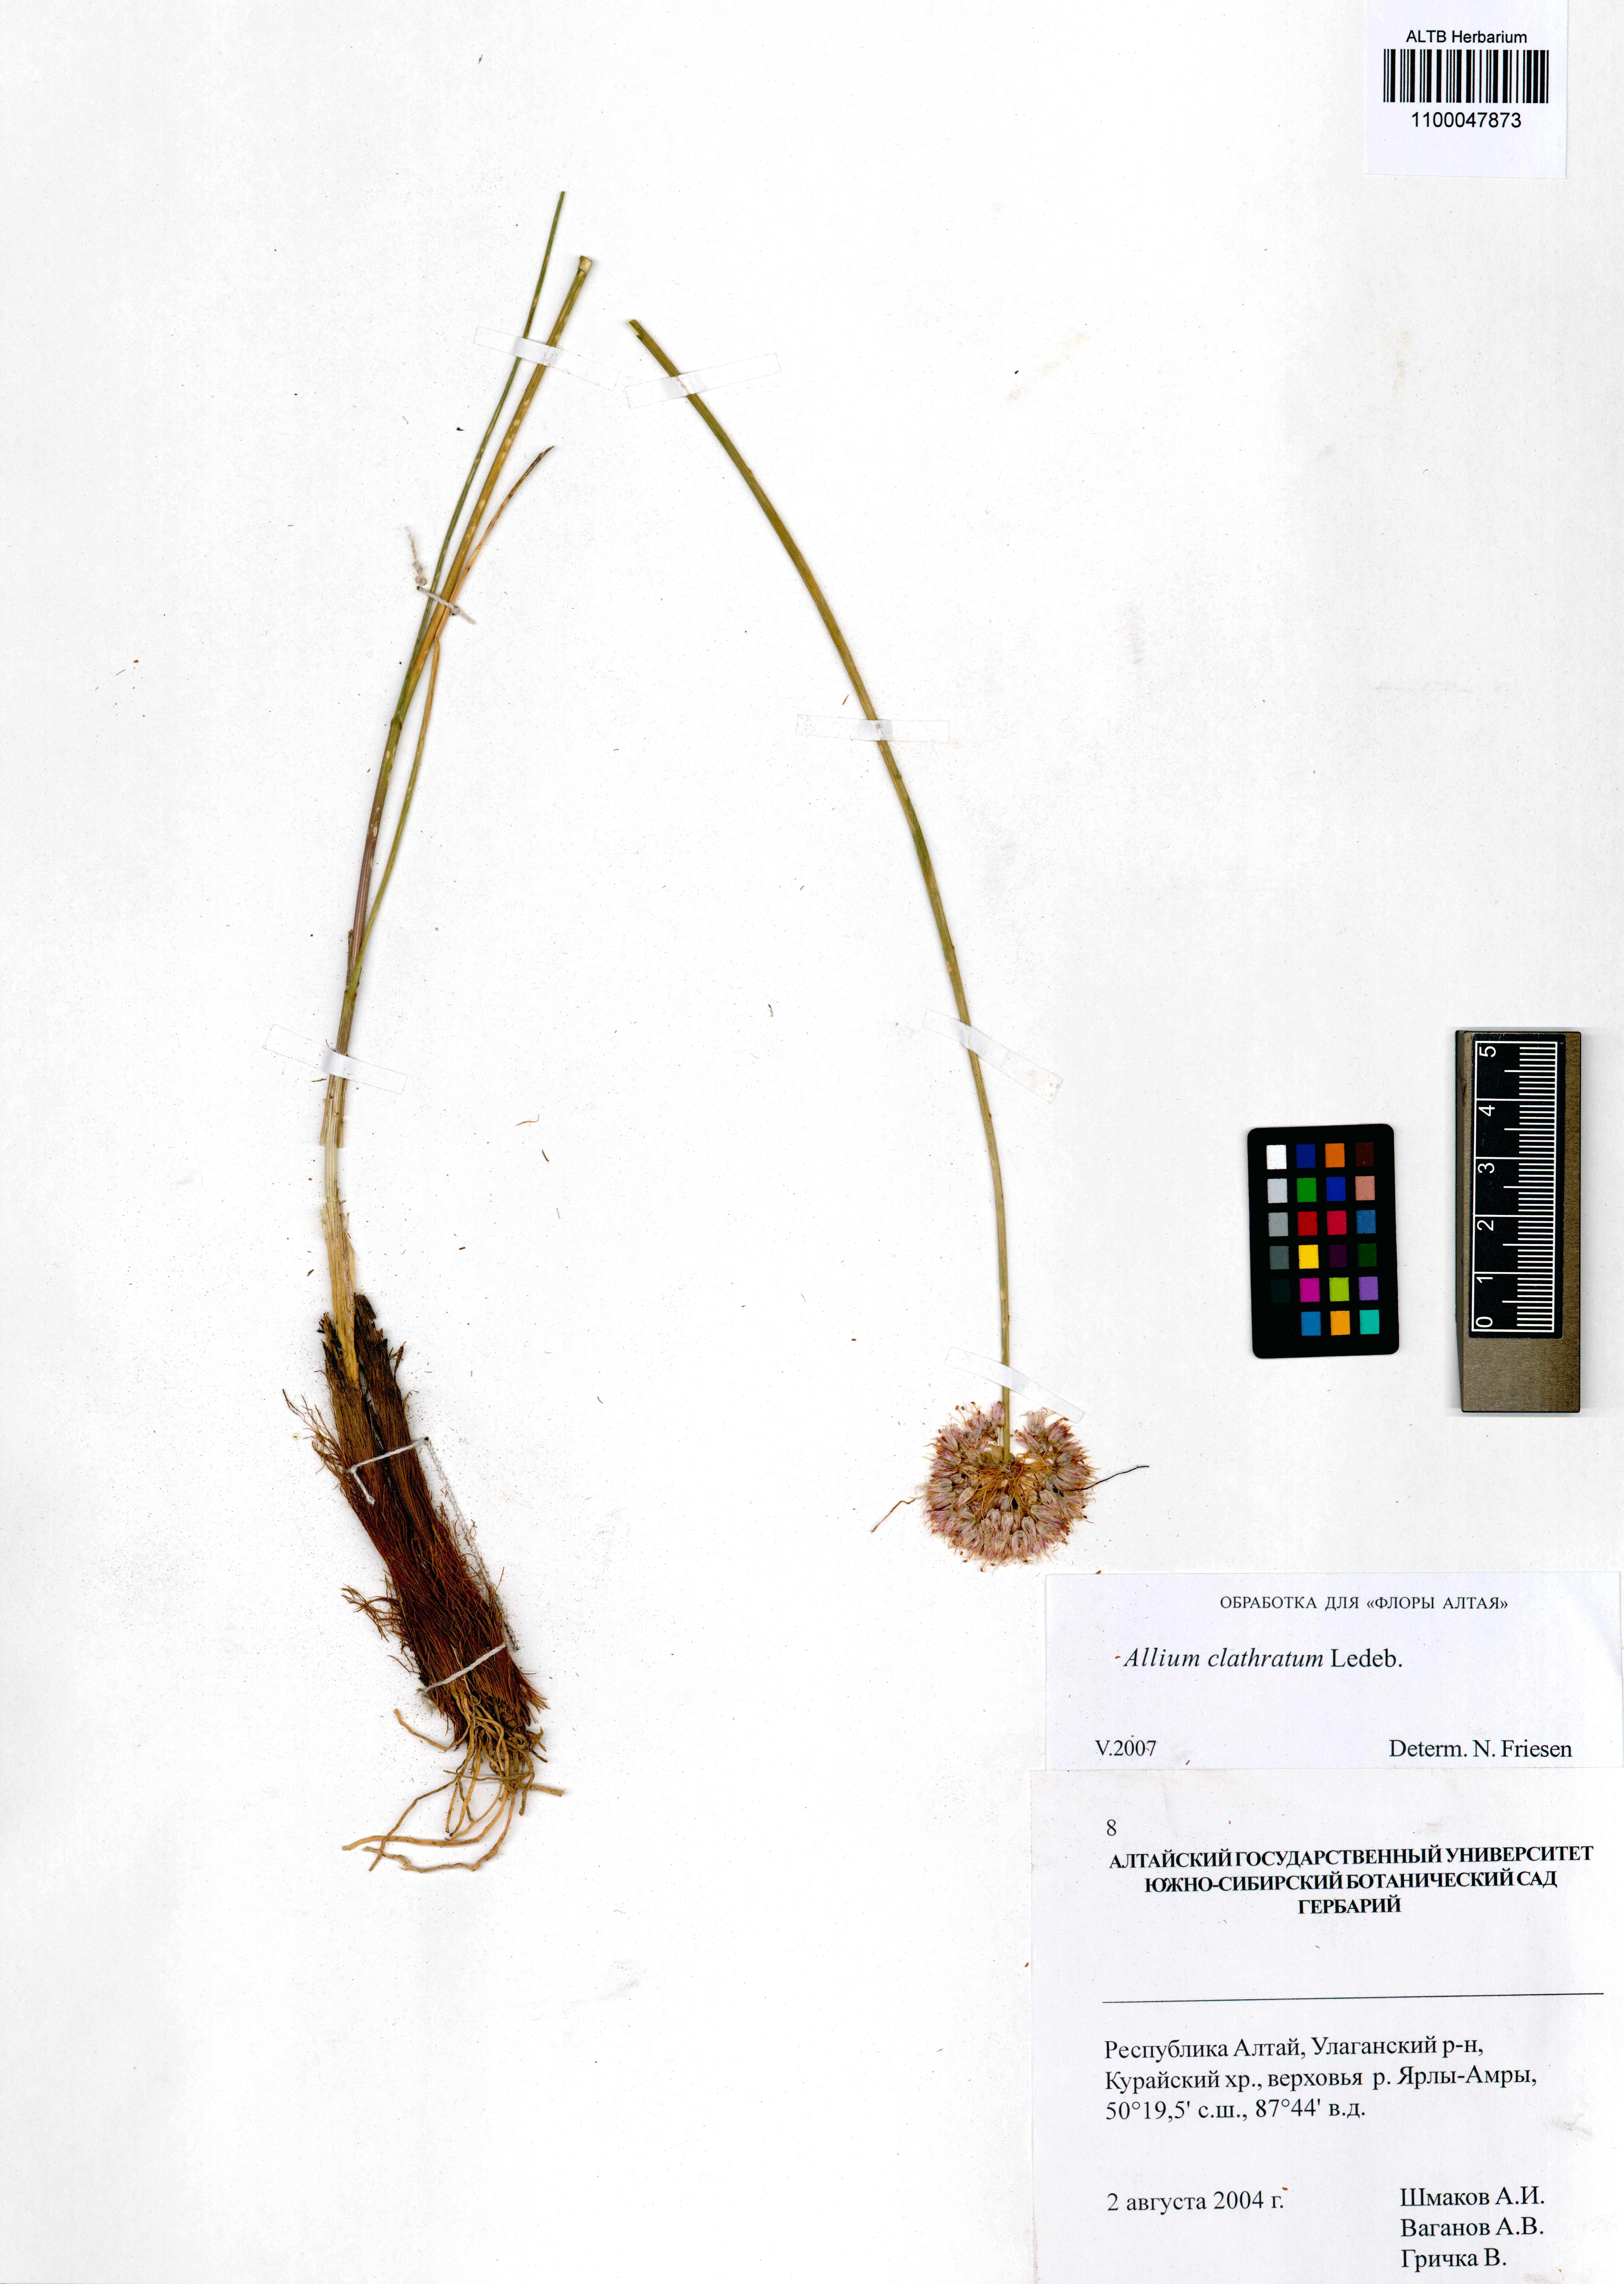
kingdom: Plantae
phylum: Tracheophyta
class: Liliopsida
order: Asparagales
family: Amaryllidaceae
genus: Allium
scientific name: Allium clathratum
